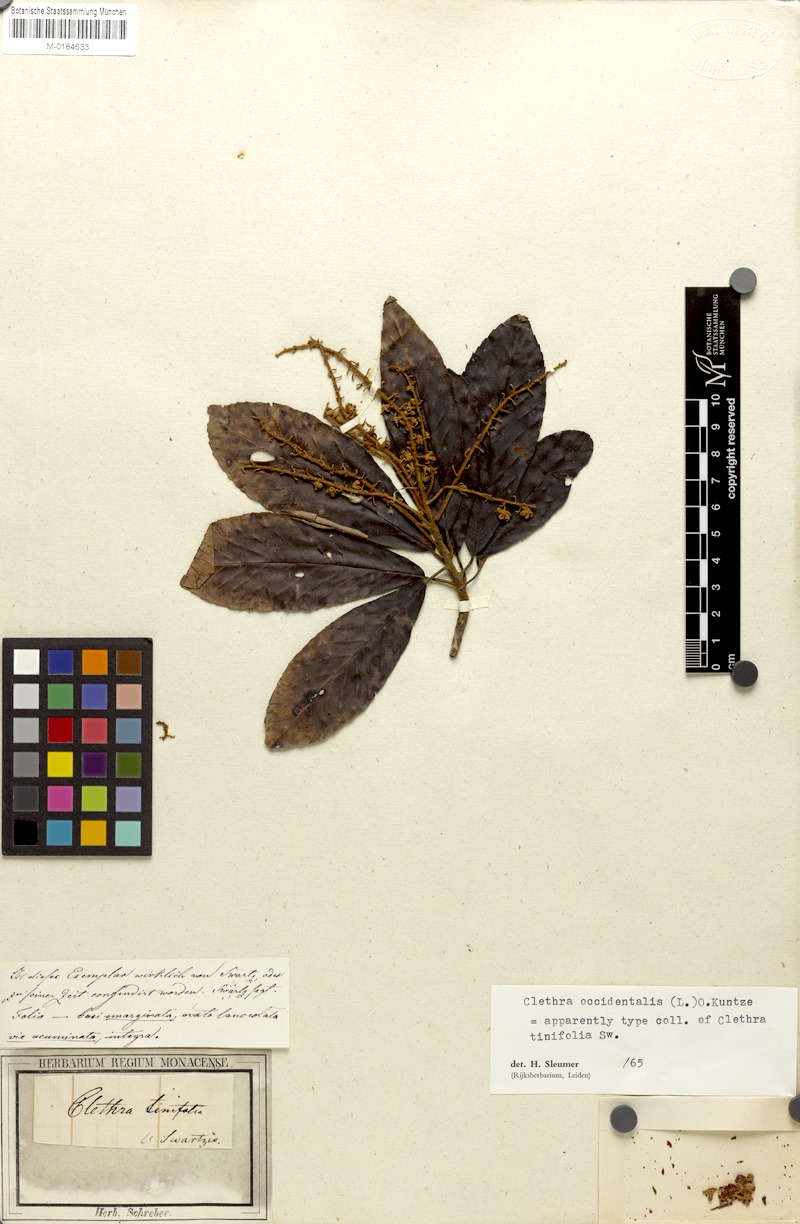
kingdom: Plantae
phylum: Tracheophyta
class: Magnoliopsida
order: Ericales
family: Clethraceae
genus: Clethra
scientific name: Clethra occidentalis
